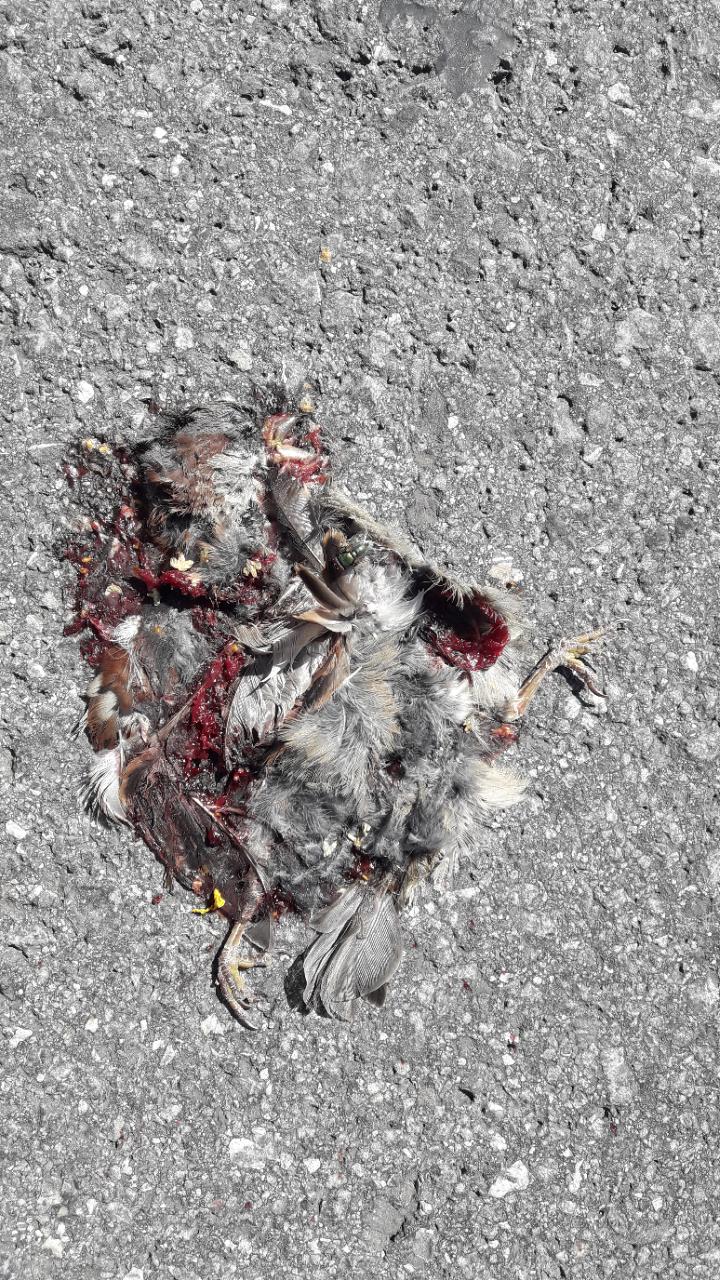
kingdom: Animalia
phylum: Chordata
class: Aves
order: Passeriformes
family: Passeridae
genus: Passer
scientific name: Passer
